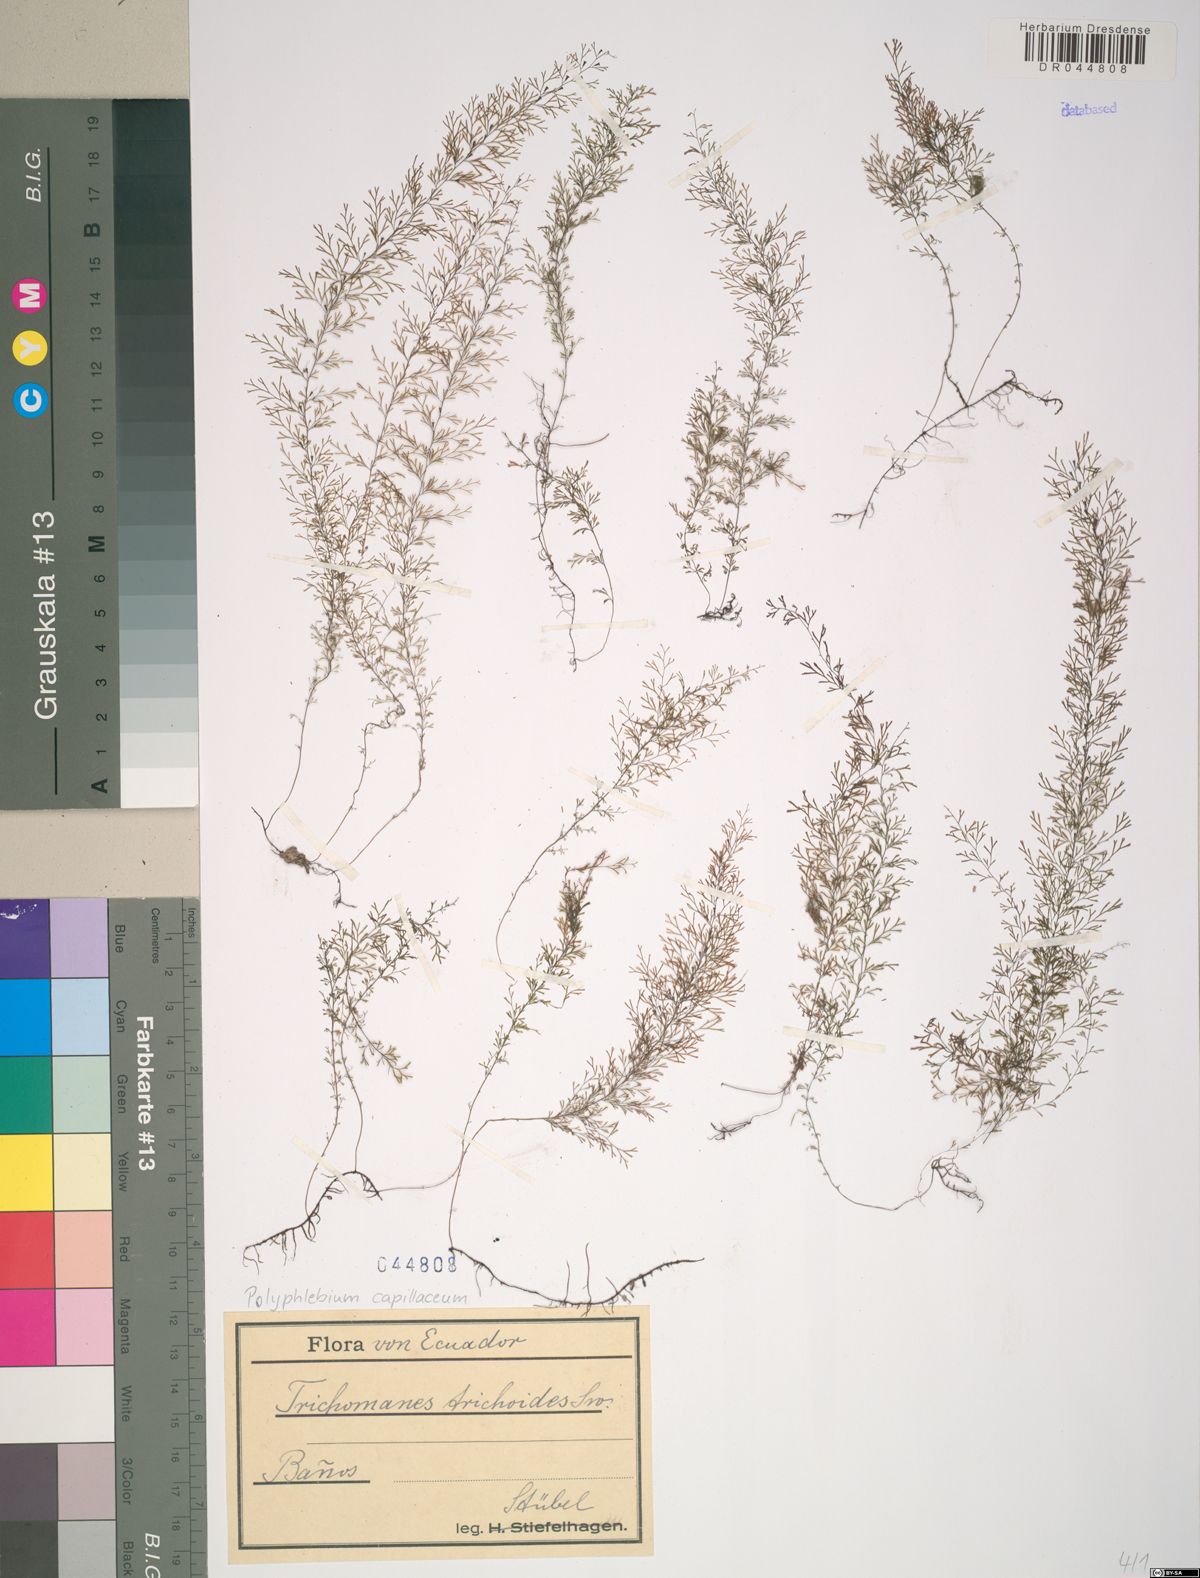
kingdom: Plantae
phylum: Tracheophyta
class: Polypodiopsida
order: Hymenophyllales
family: Hymenophyllaceae
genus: Polyphlebium
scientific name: Polyphlebium capillaceum
